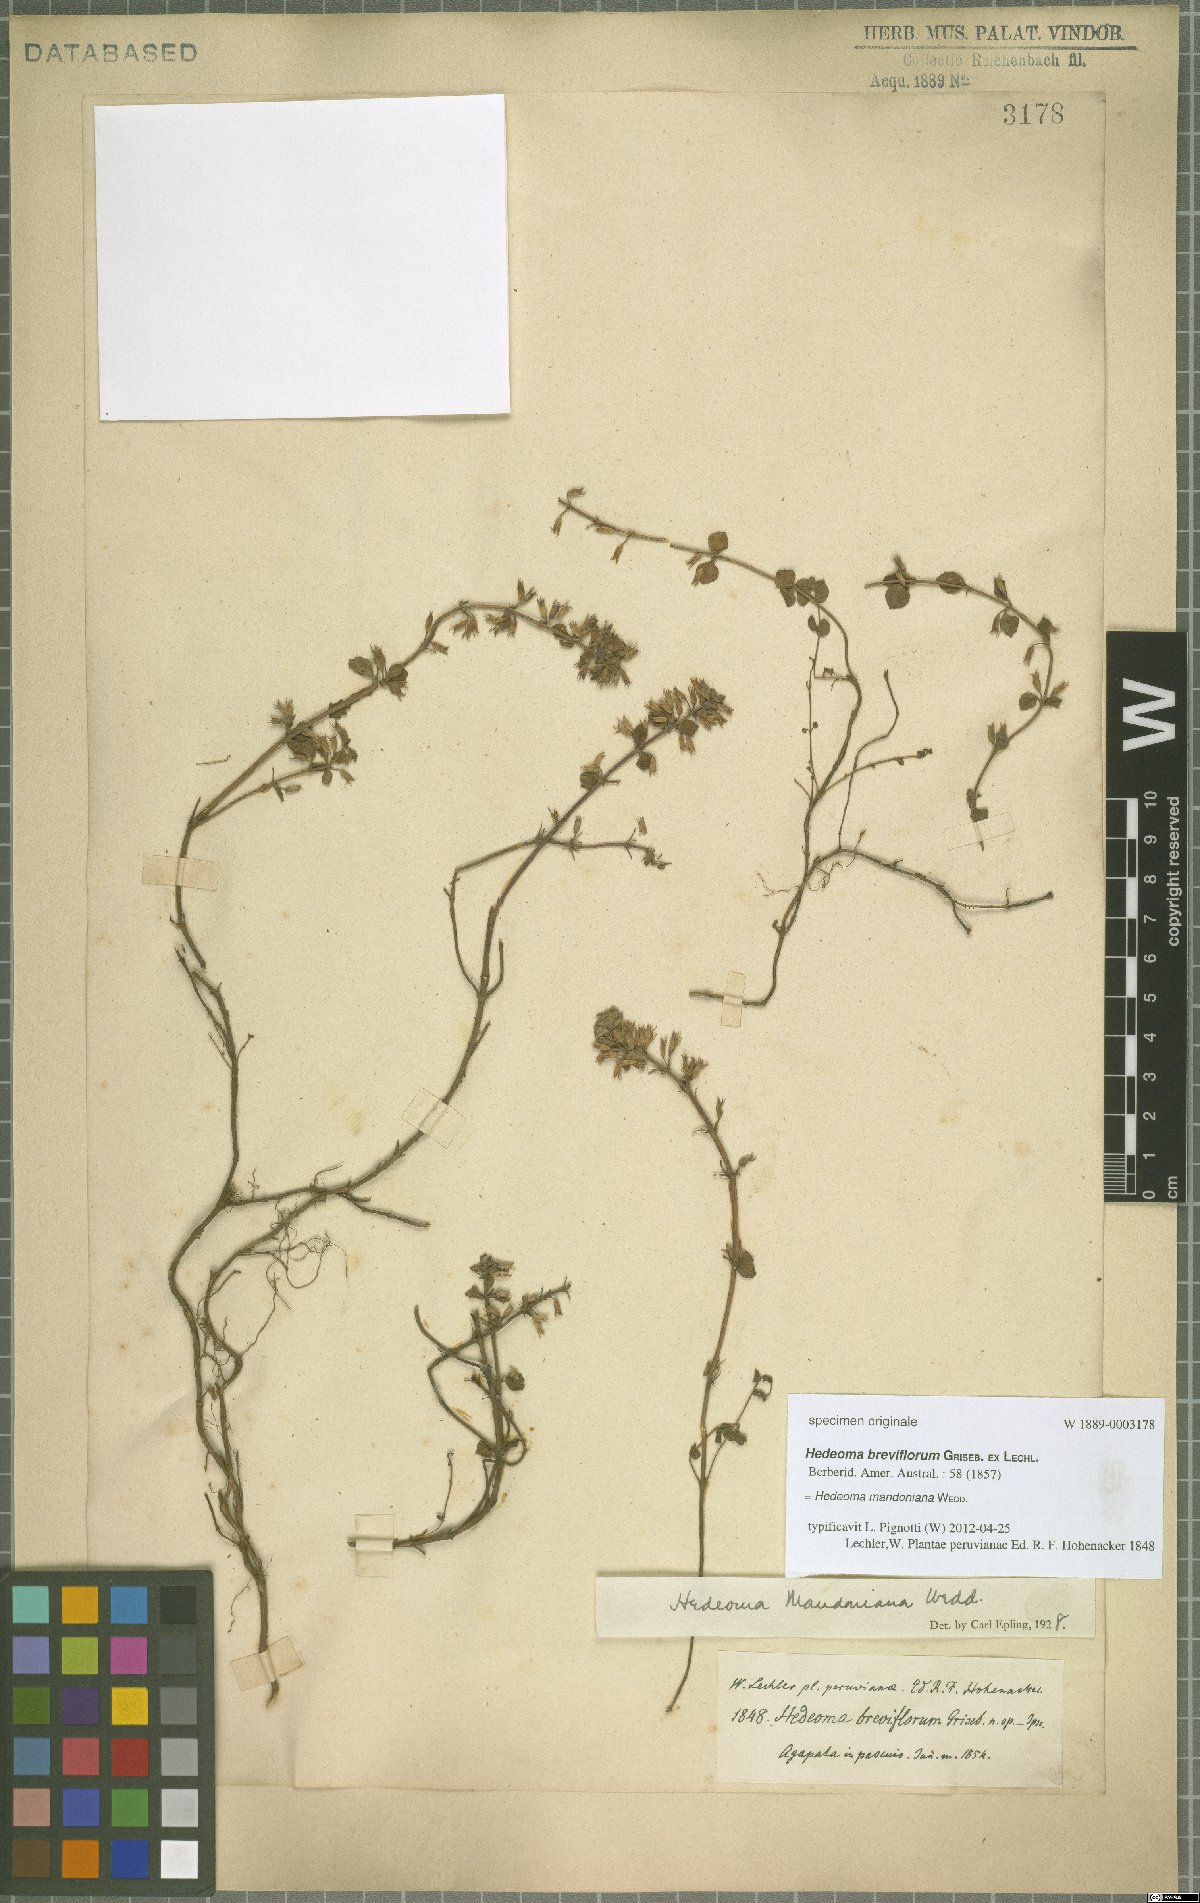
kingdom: Plantae
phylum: Tracheophyta
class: Magnoliopsida
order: Lamiales
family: Lamiaceae
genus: Hedeoma
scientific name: Hedeoma mandoniana
